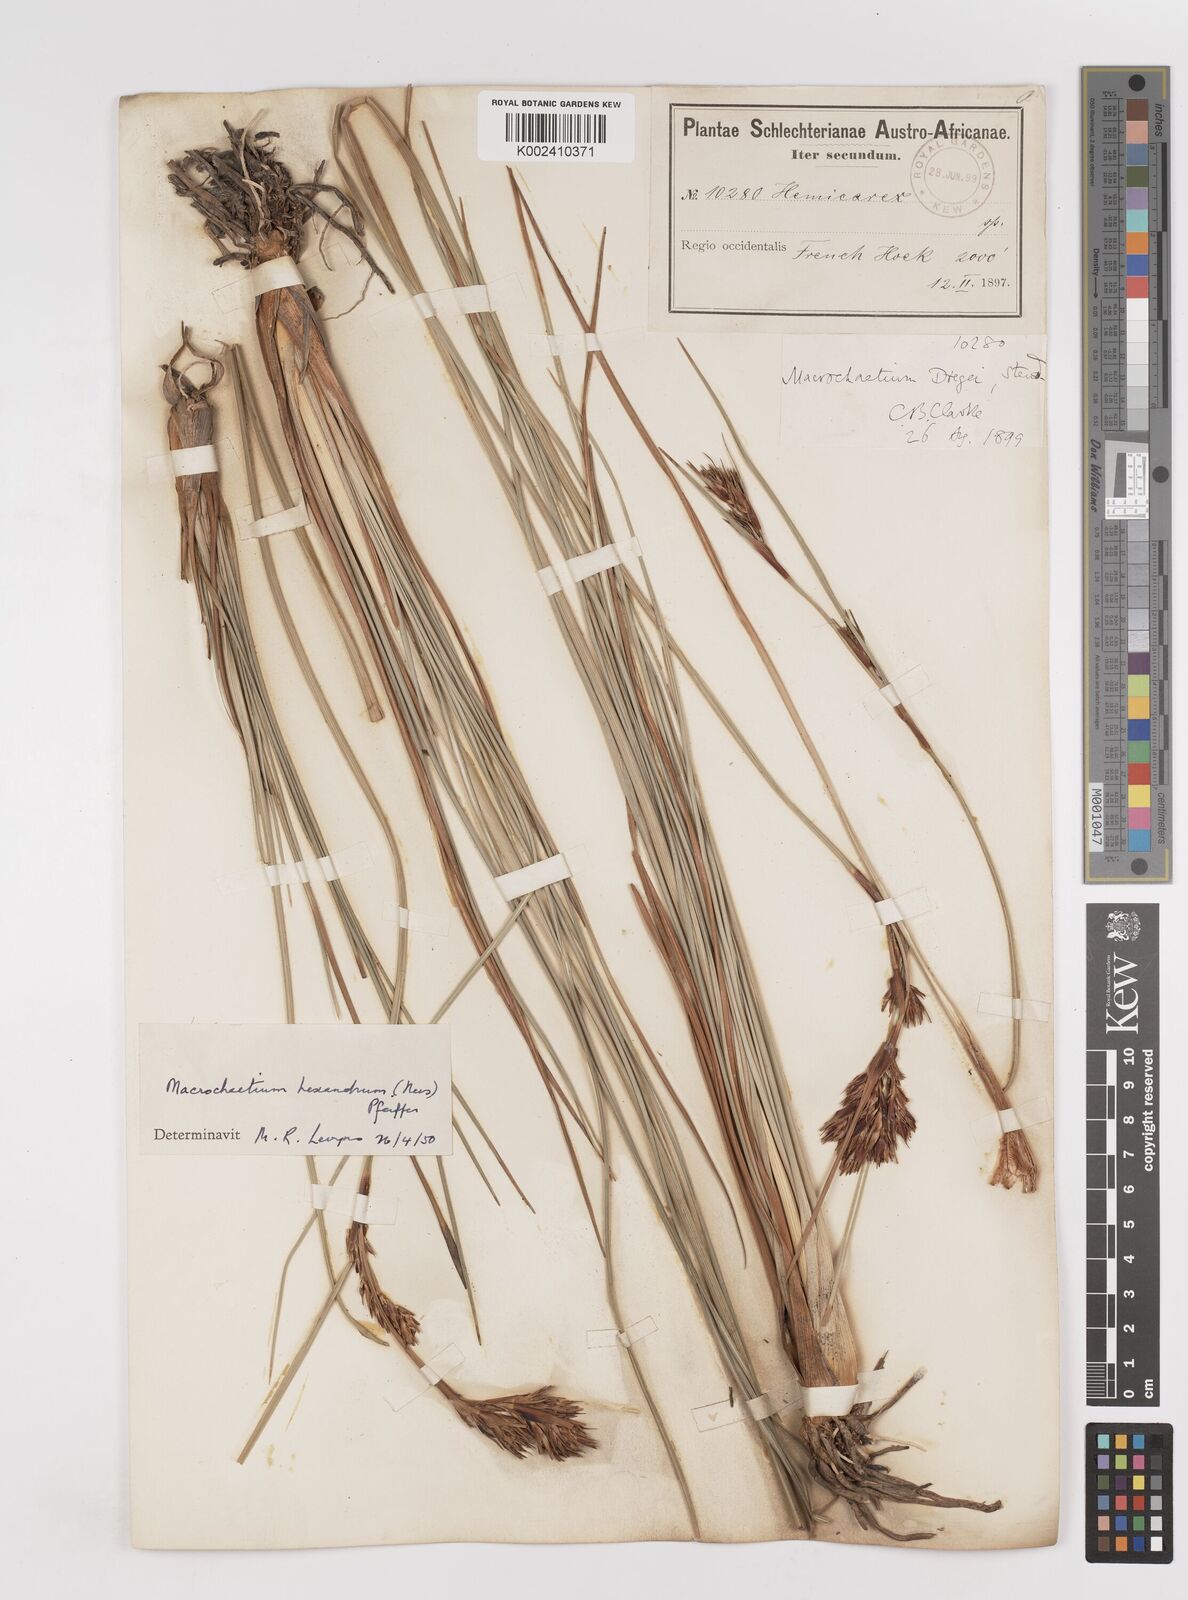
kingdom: Plantae
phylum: Tracheophyta
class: Liliopsida
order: Poales
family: Cyperaceae
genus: Cyathocoma
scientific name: Cyathocoma hexandra
